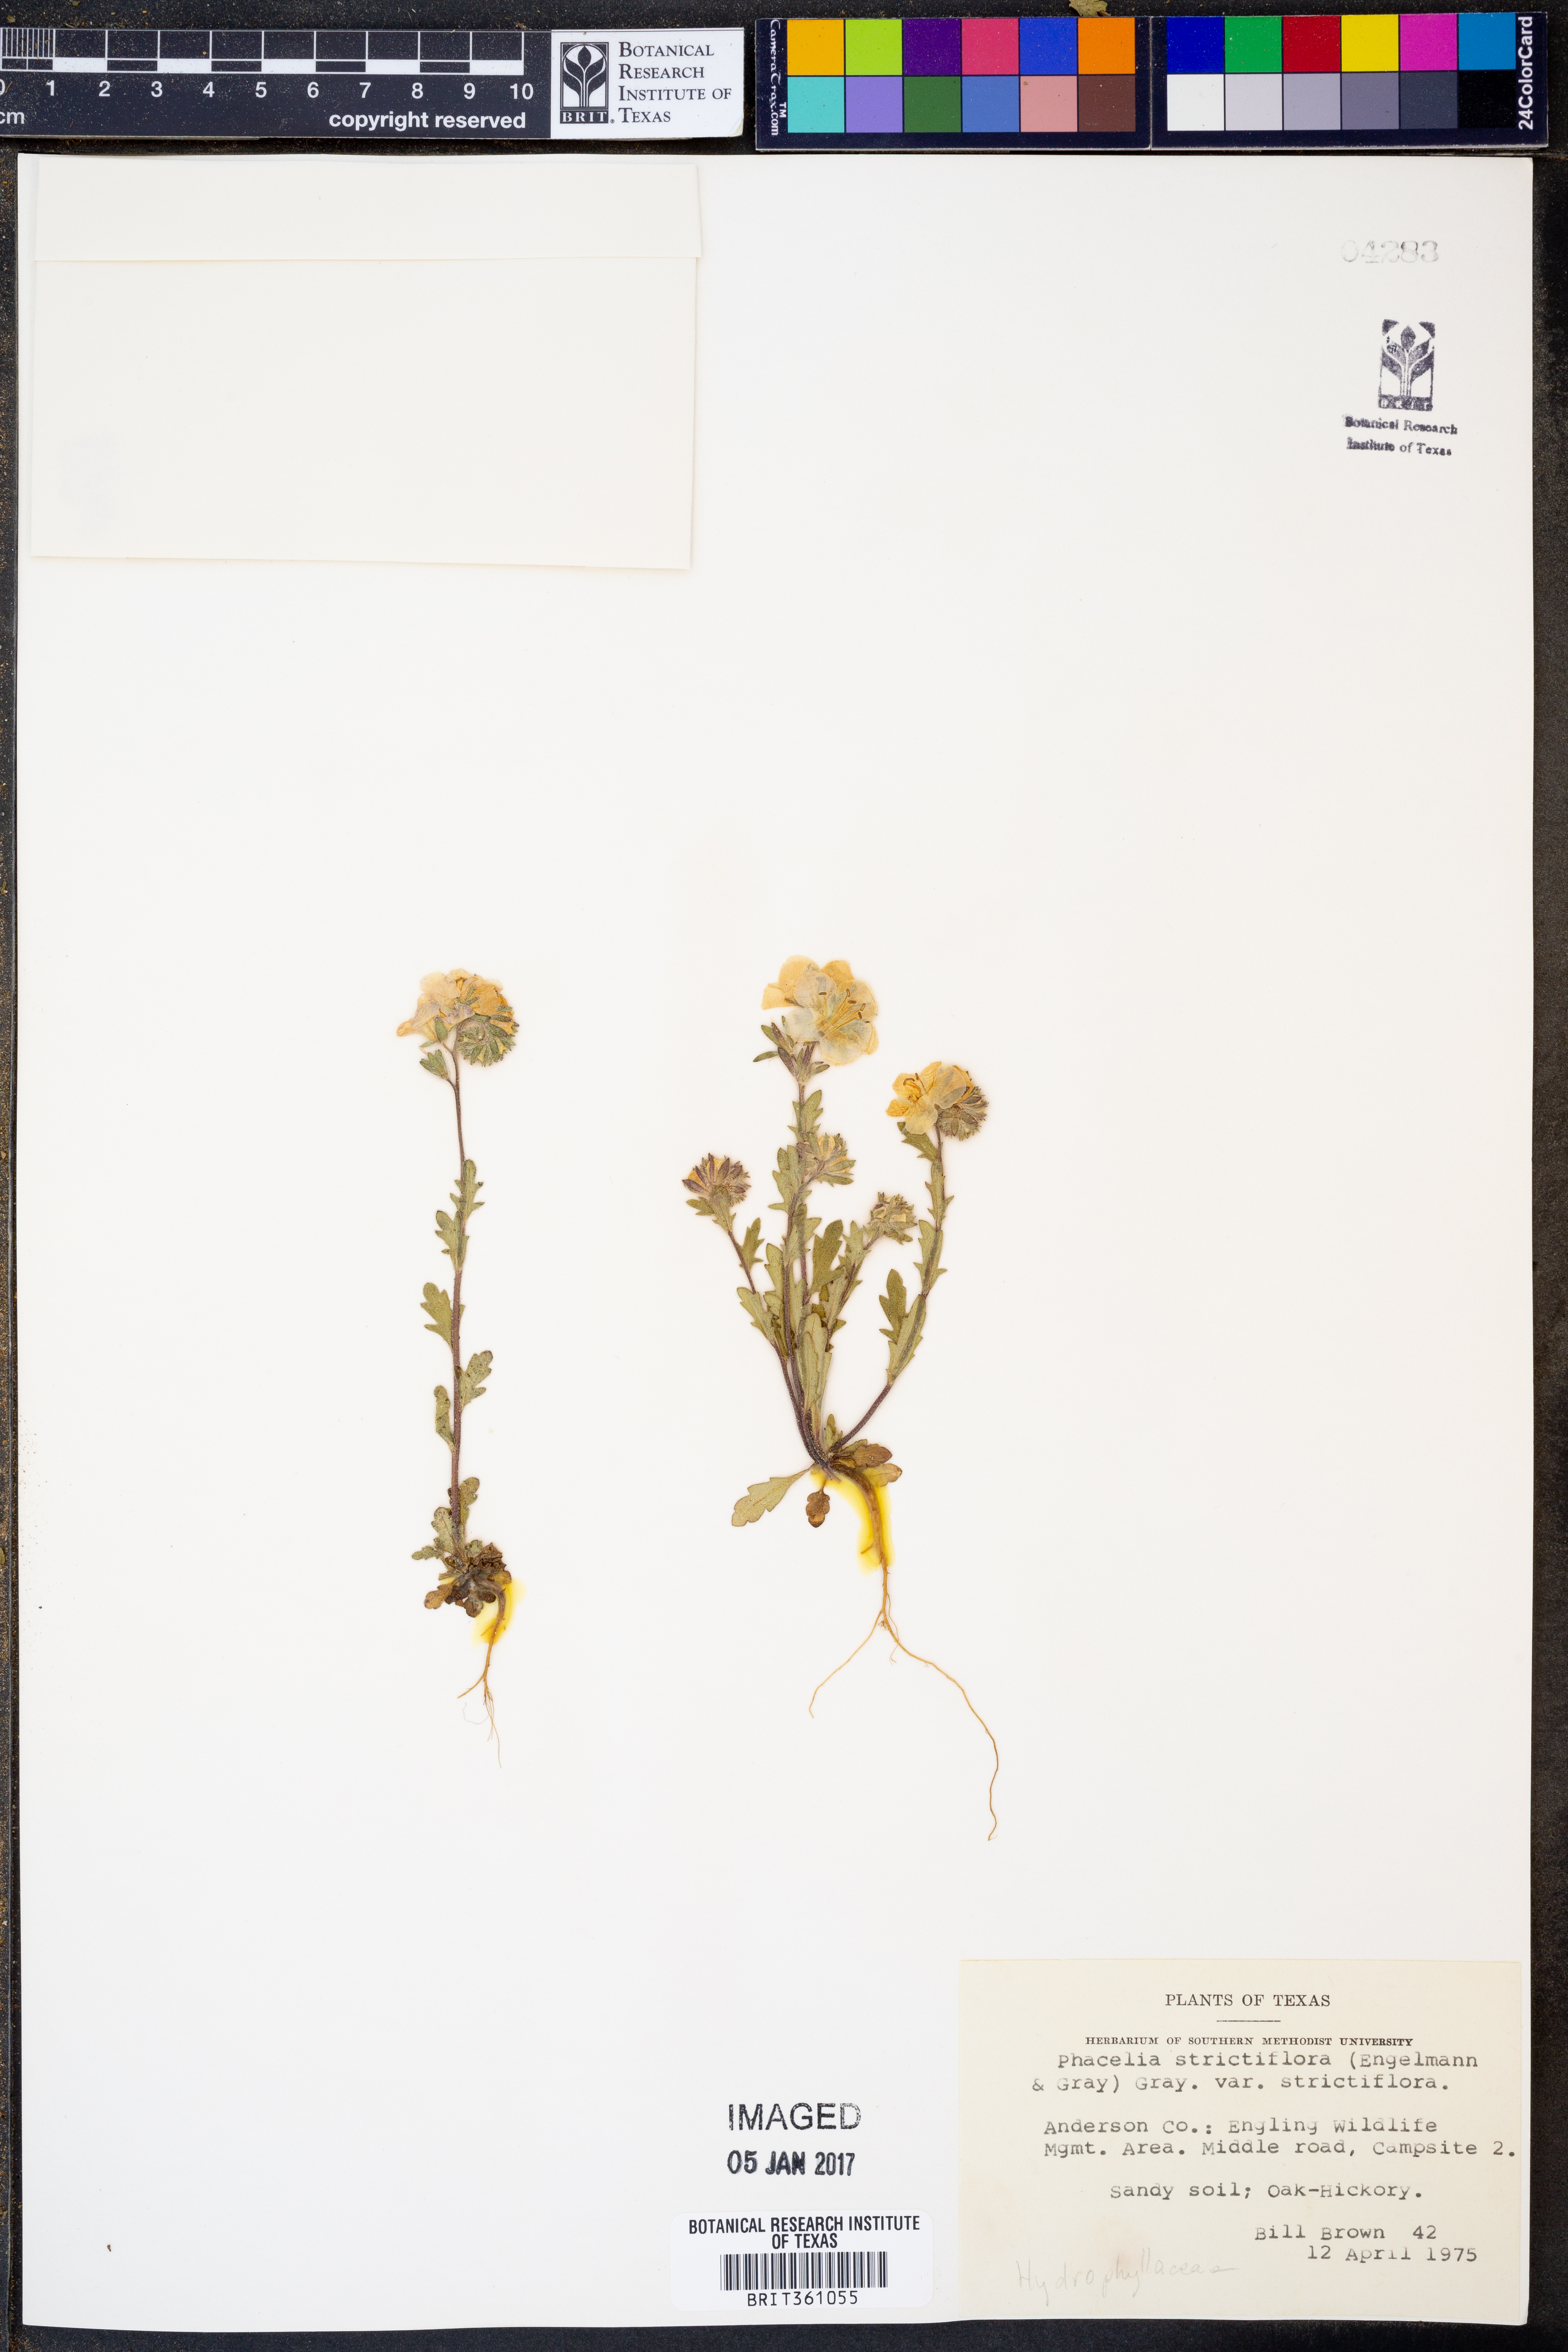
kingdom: Plantae
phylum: Tracheophyta
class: Magnoliopsida
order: Boraginales
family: Hydrophyllaceae
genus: Phacelia
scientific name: Phacelia strictiflora
